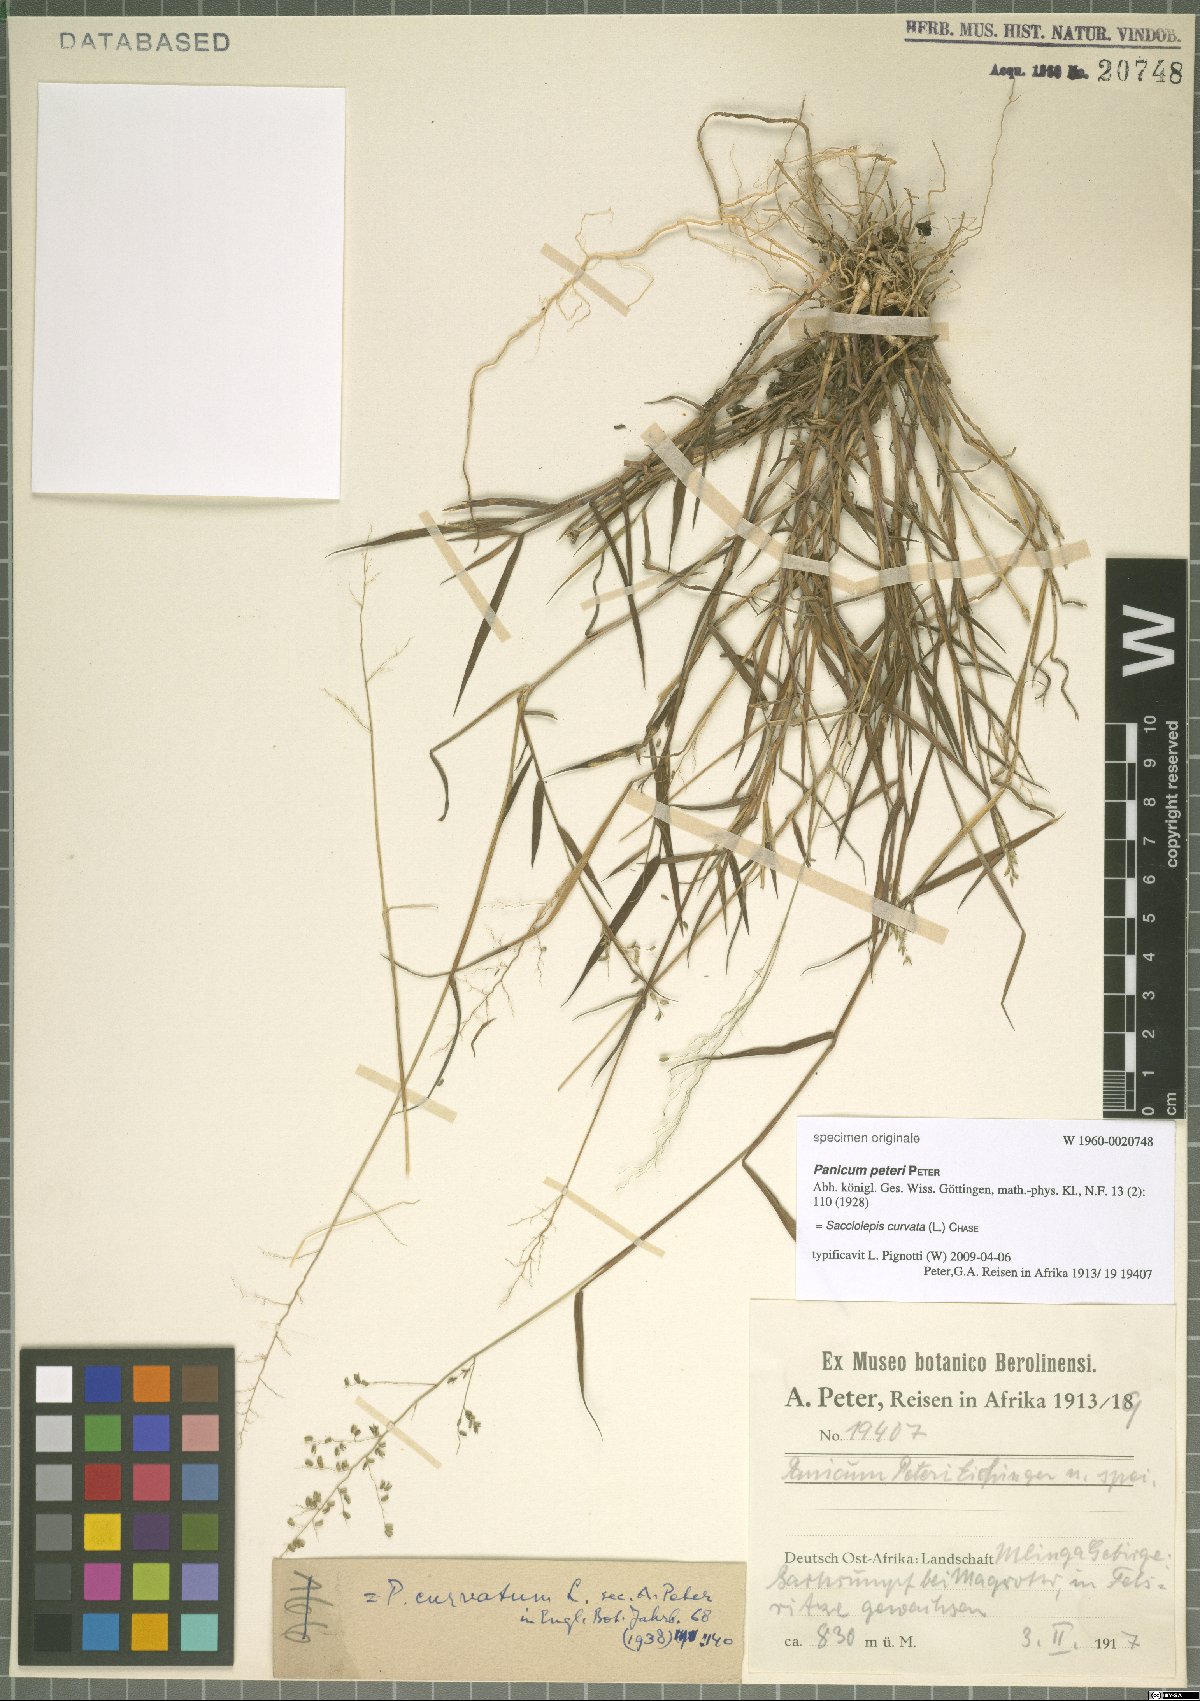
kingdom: Plantae
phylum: Tracheophyta
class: Liliopsida
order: Poales
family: Poaceae
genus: Sacciolepis
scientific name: Sacciolepis curvata
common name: Forest hood grass
